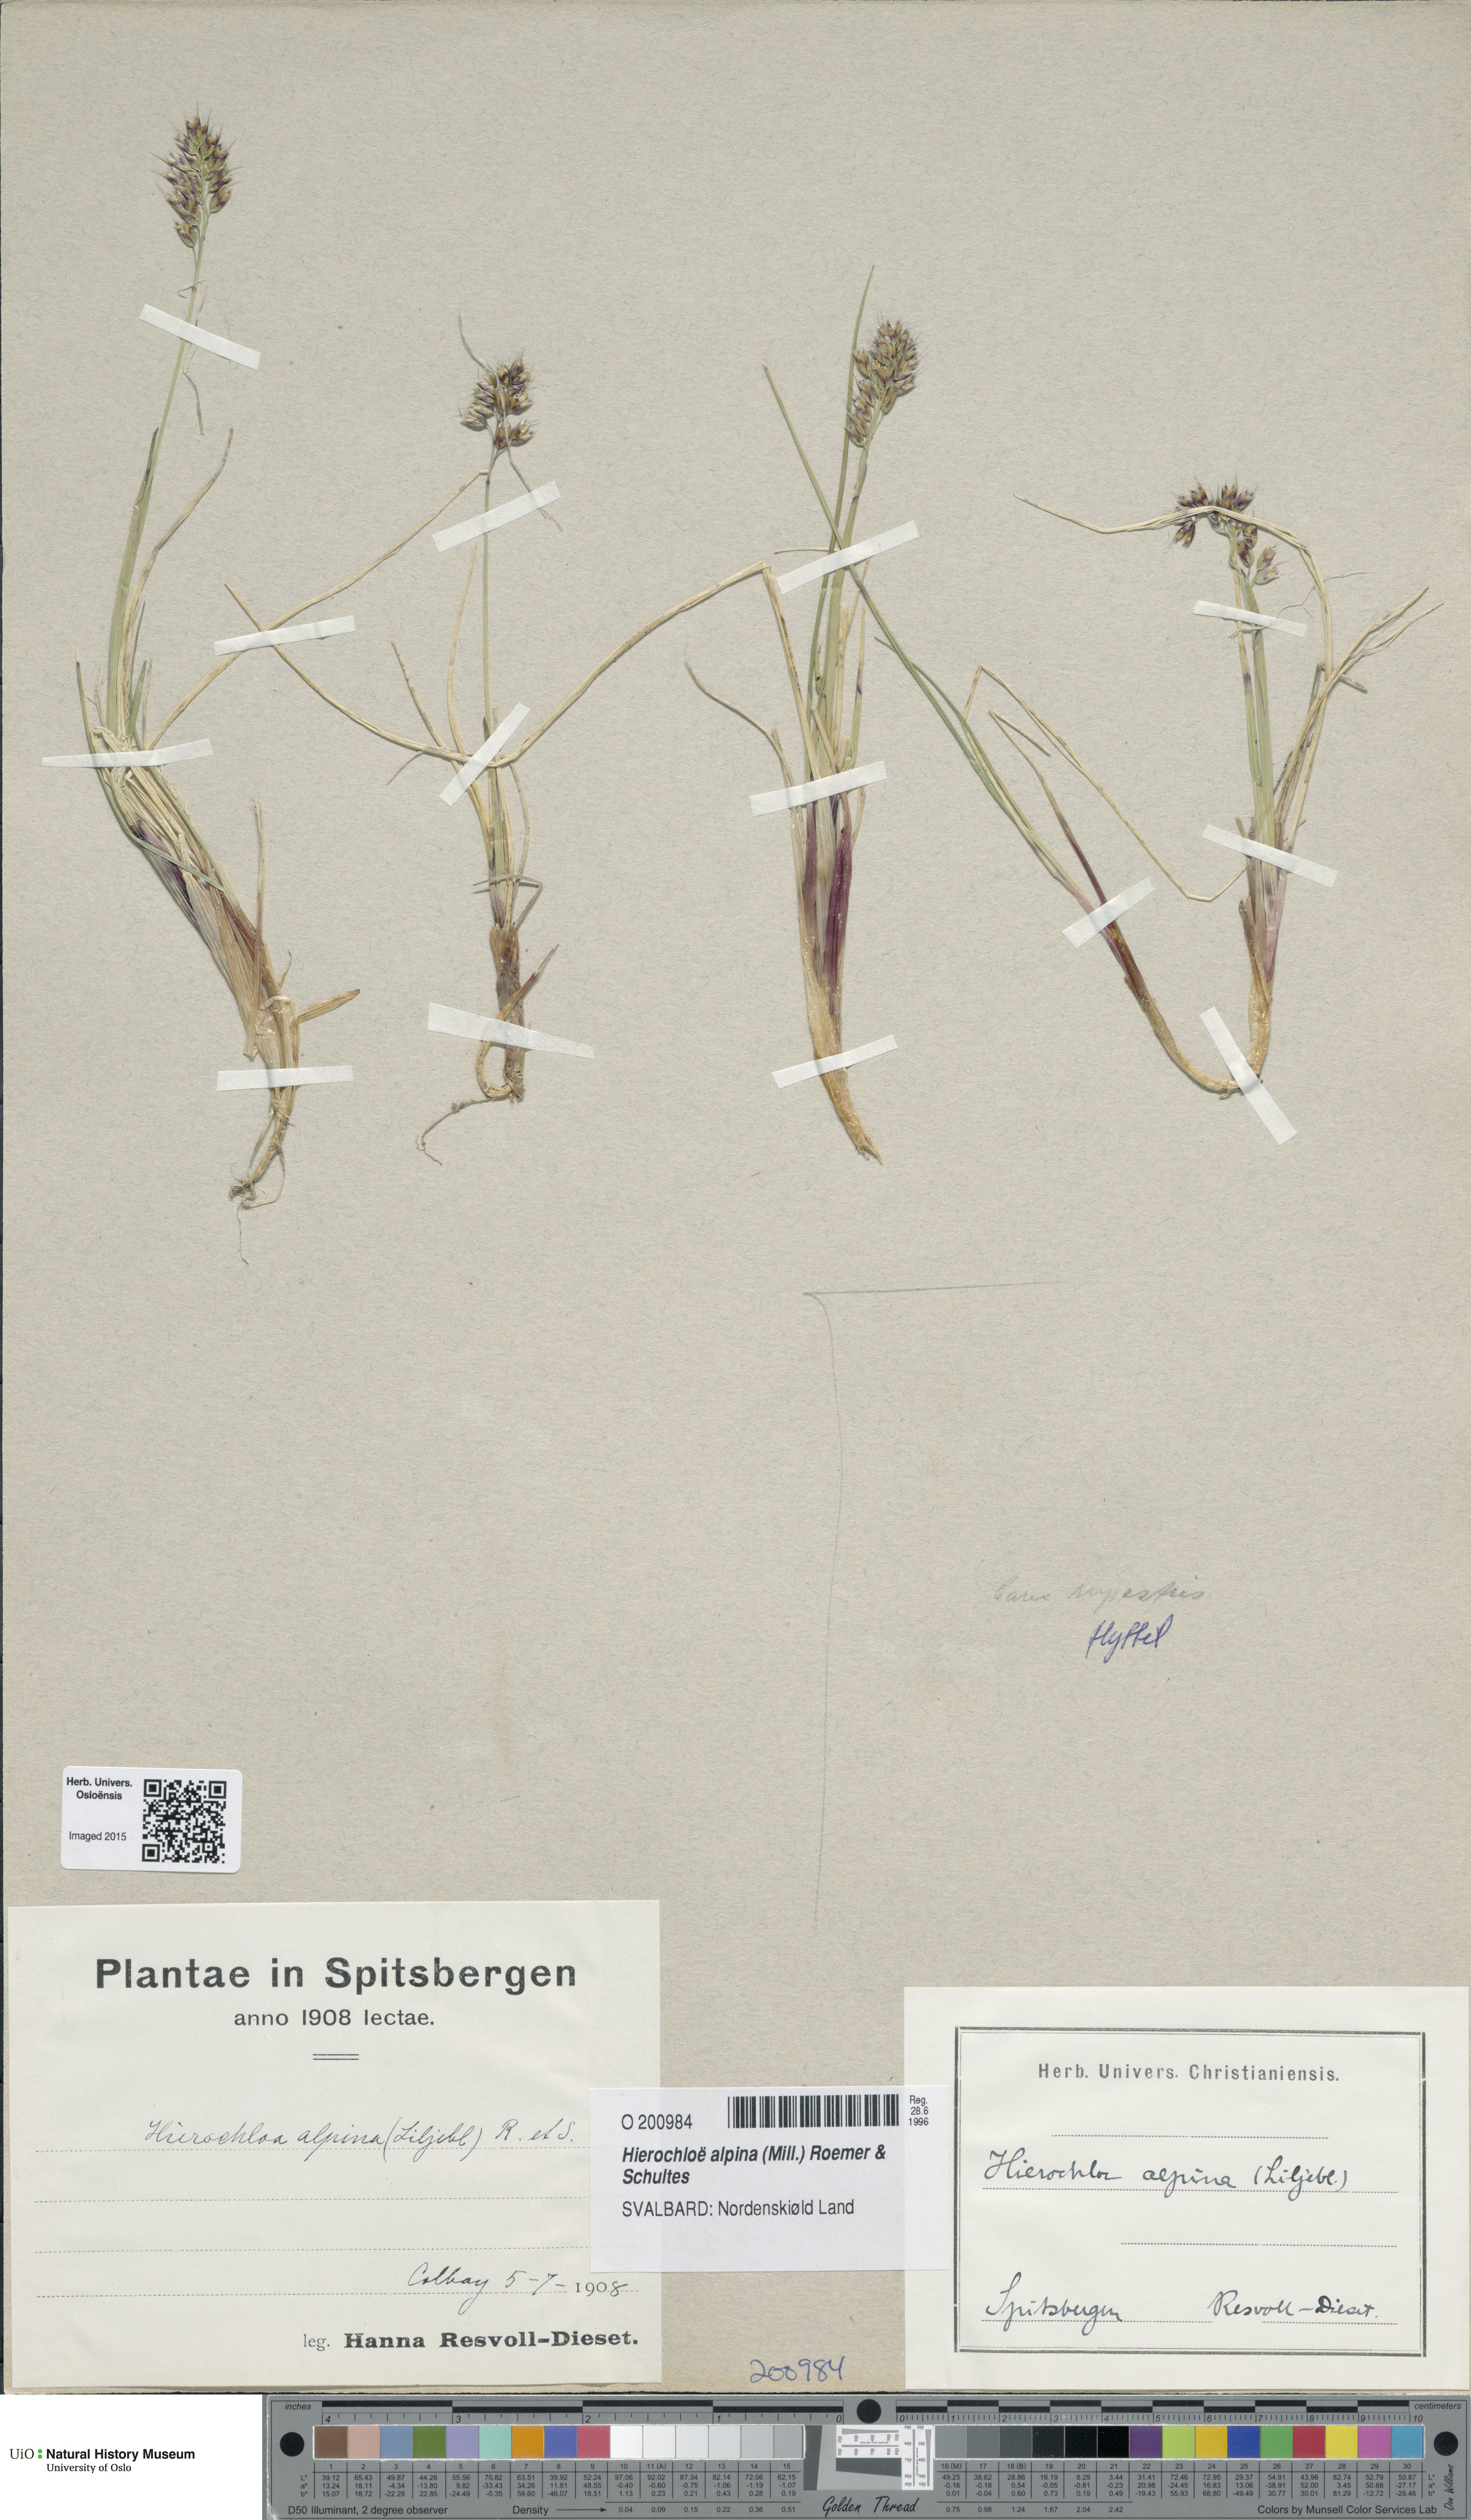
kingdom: Plantae
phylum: Tracheophyta
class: Liliopsida
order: Poales
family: Poaceae
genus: Anthoxanthum
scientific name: Anthoxanthum monticola
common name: Alpine sweetgrass
